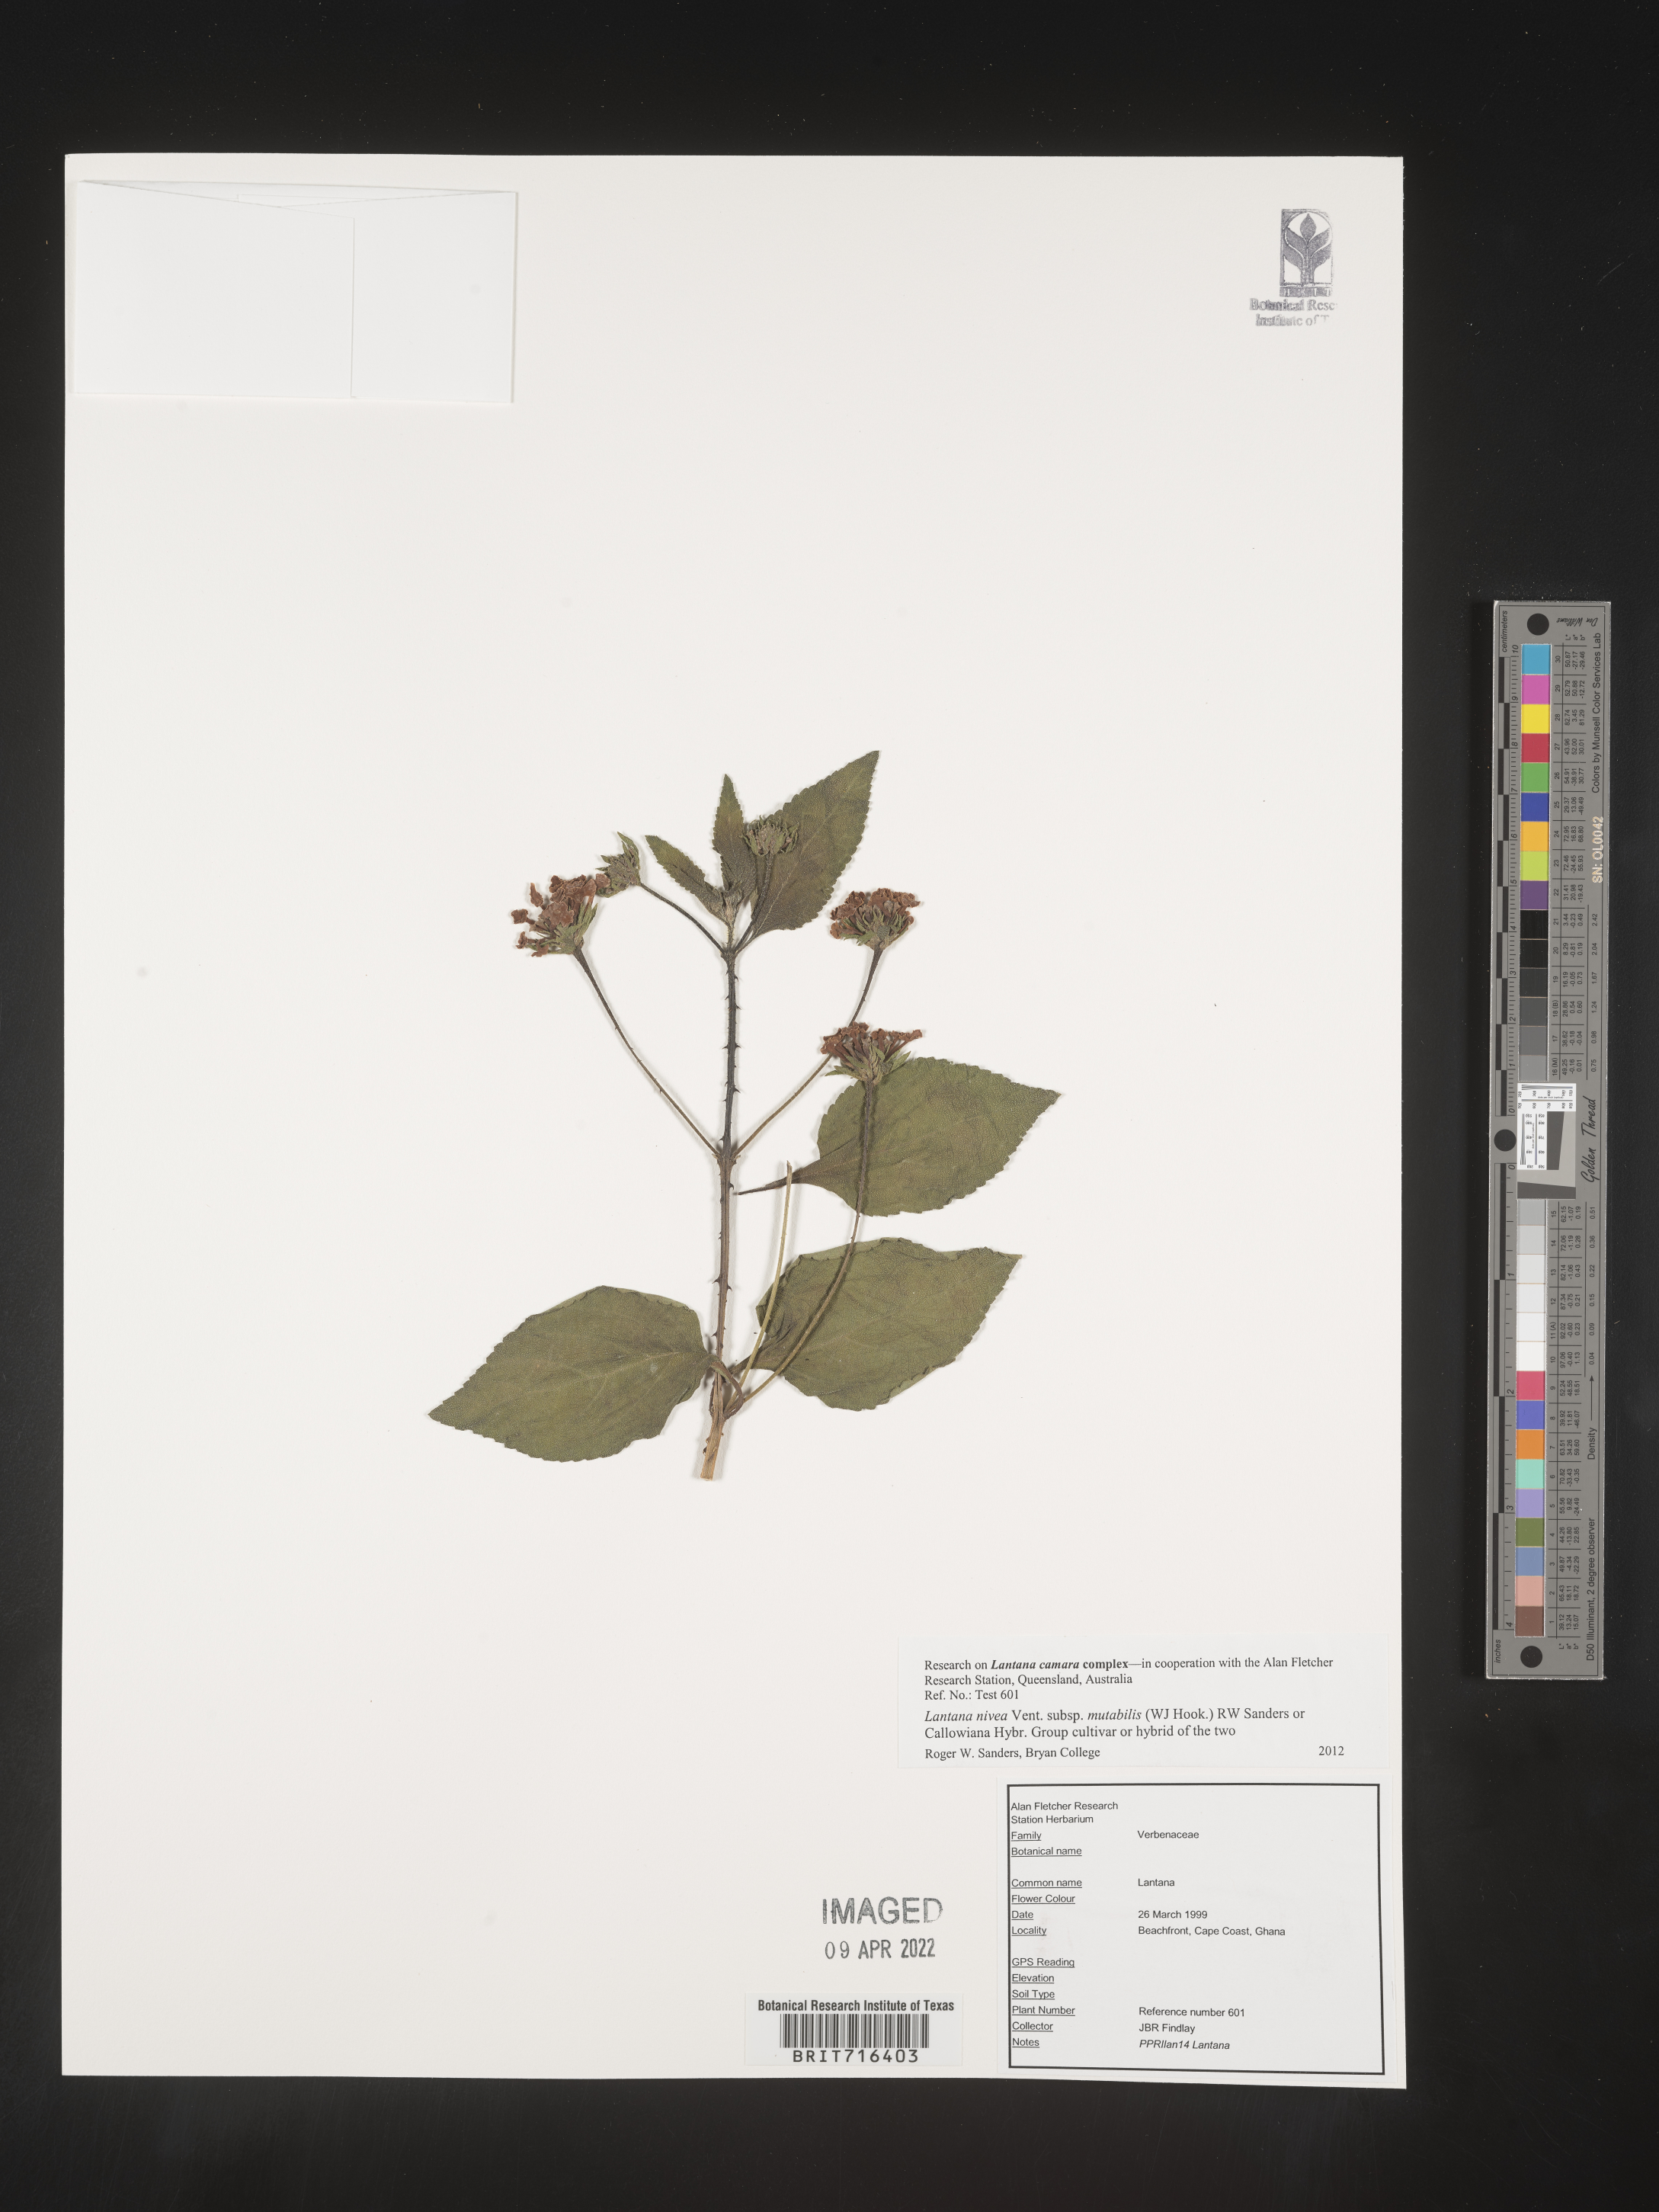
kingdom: Plantae
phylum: Tracheophyta
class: Magnoliopsida
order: Lamiales
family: Verbenaceae
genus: Lantana
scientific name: Lantana
